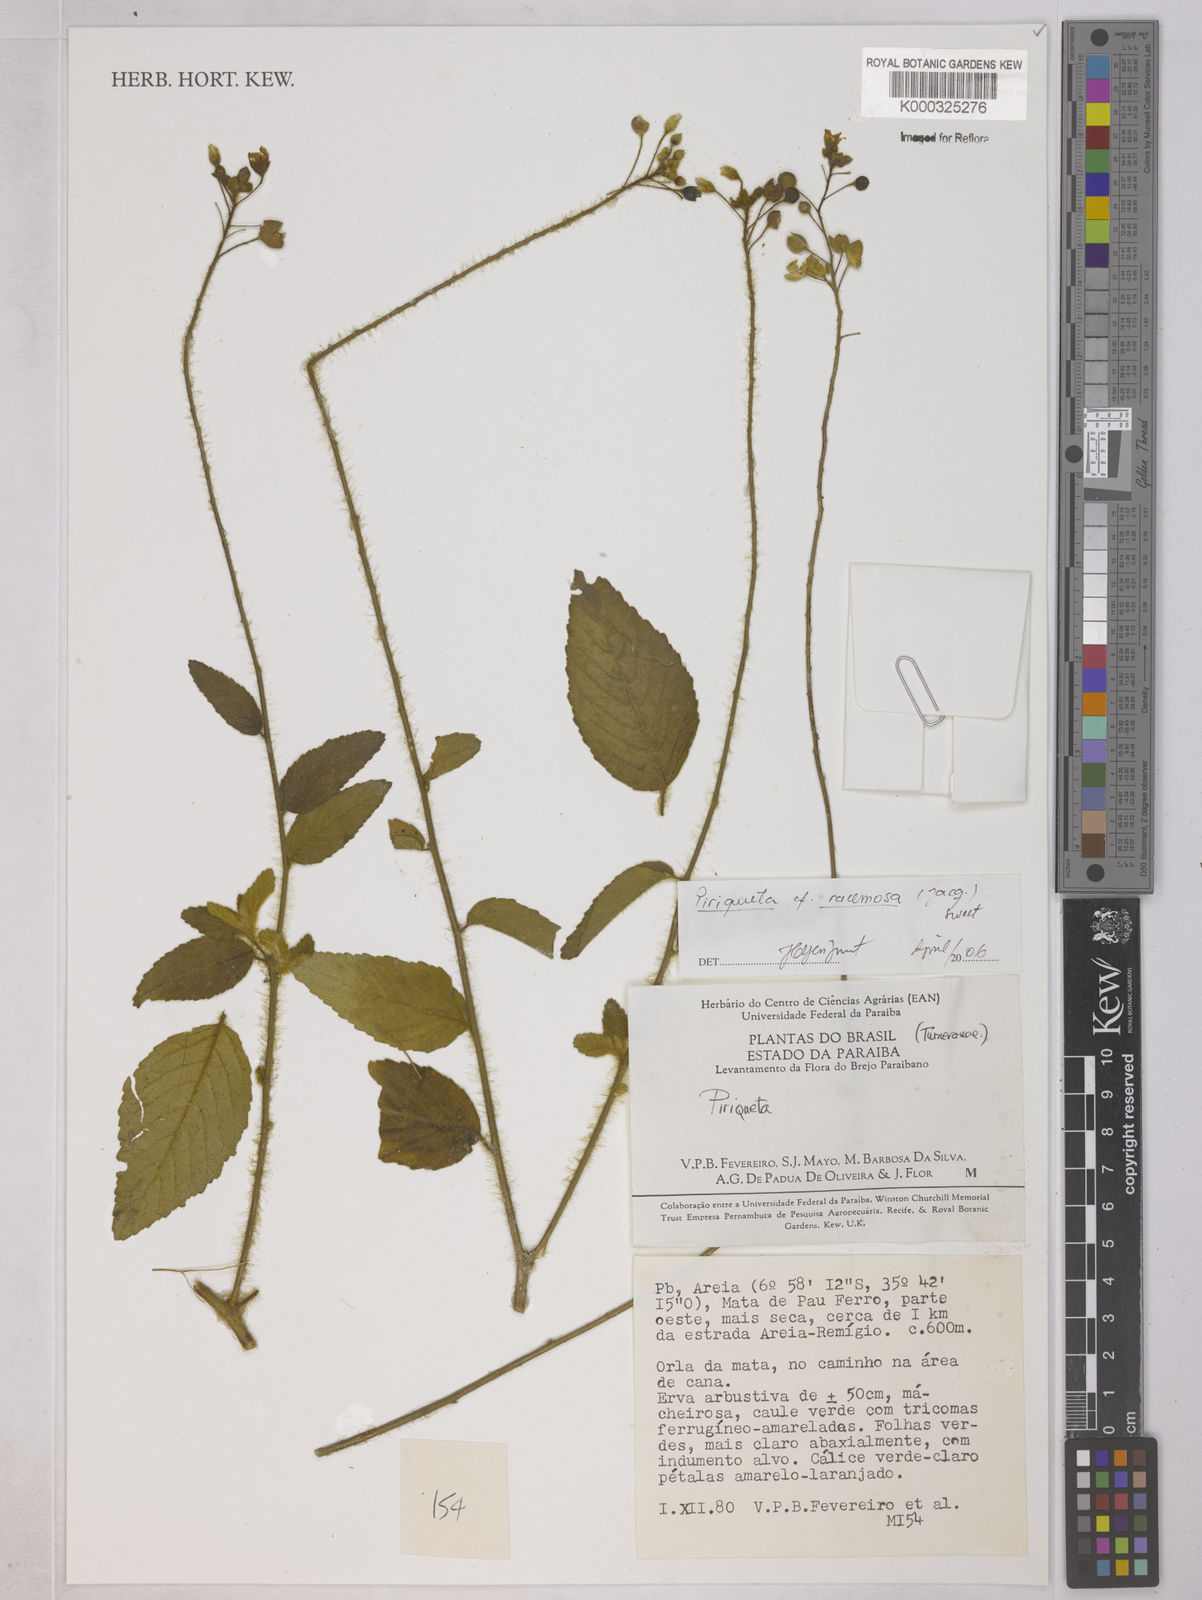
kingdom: Plantae
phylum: Tracheophyta
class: Magnoliopsida
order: Malpighiales
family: Turneraceae
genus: Piriqueta
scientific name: Piriqueta racemosa
